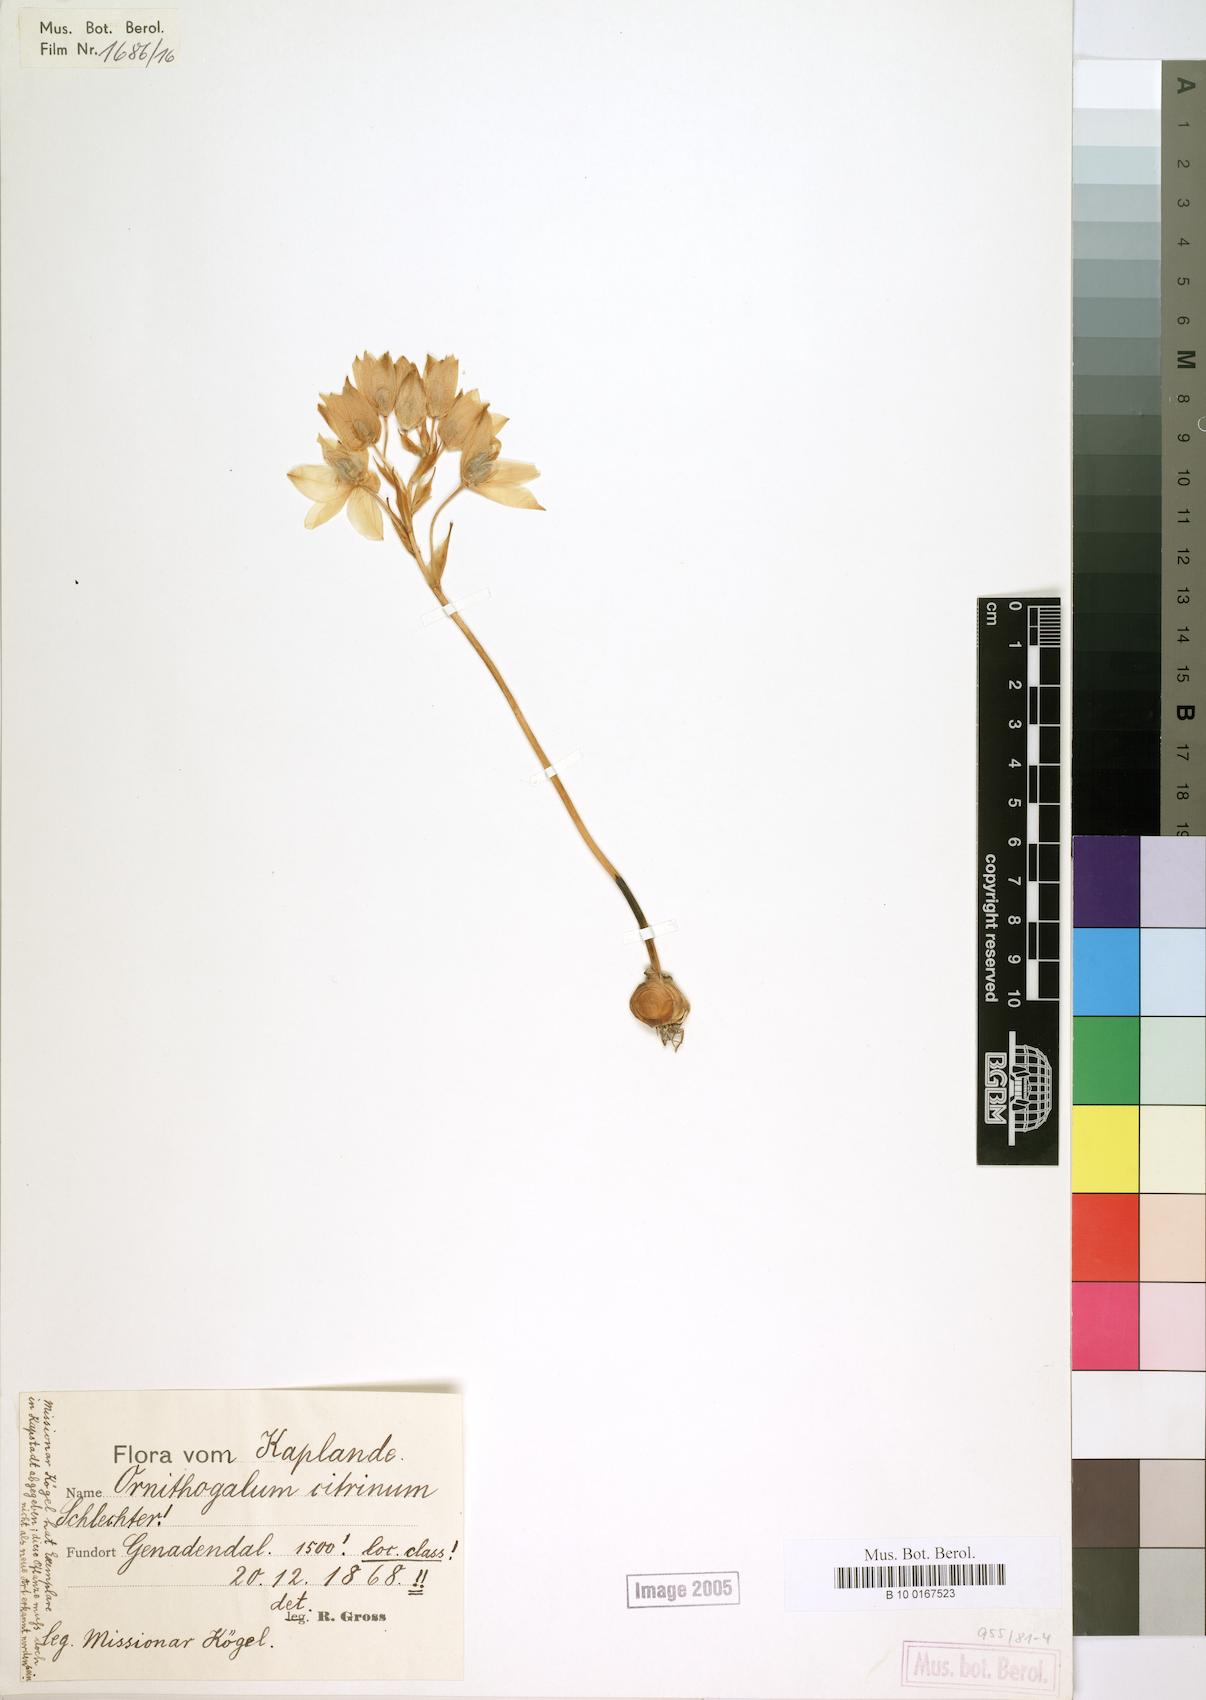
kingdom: Plantae
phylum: Tracheophyta
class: Liliopsida
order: Asparagales
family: Asparagaceae
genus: Ornithogalum
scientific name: Ornithogalum dubium
